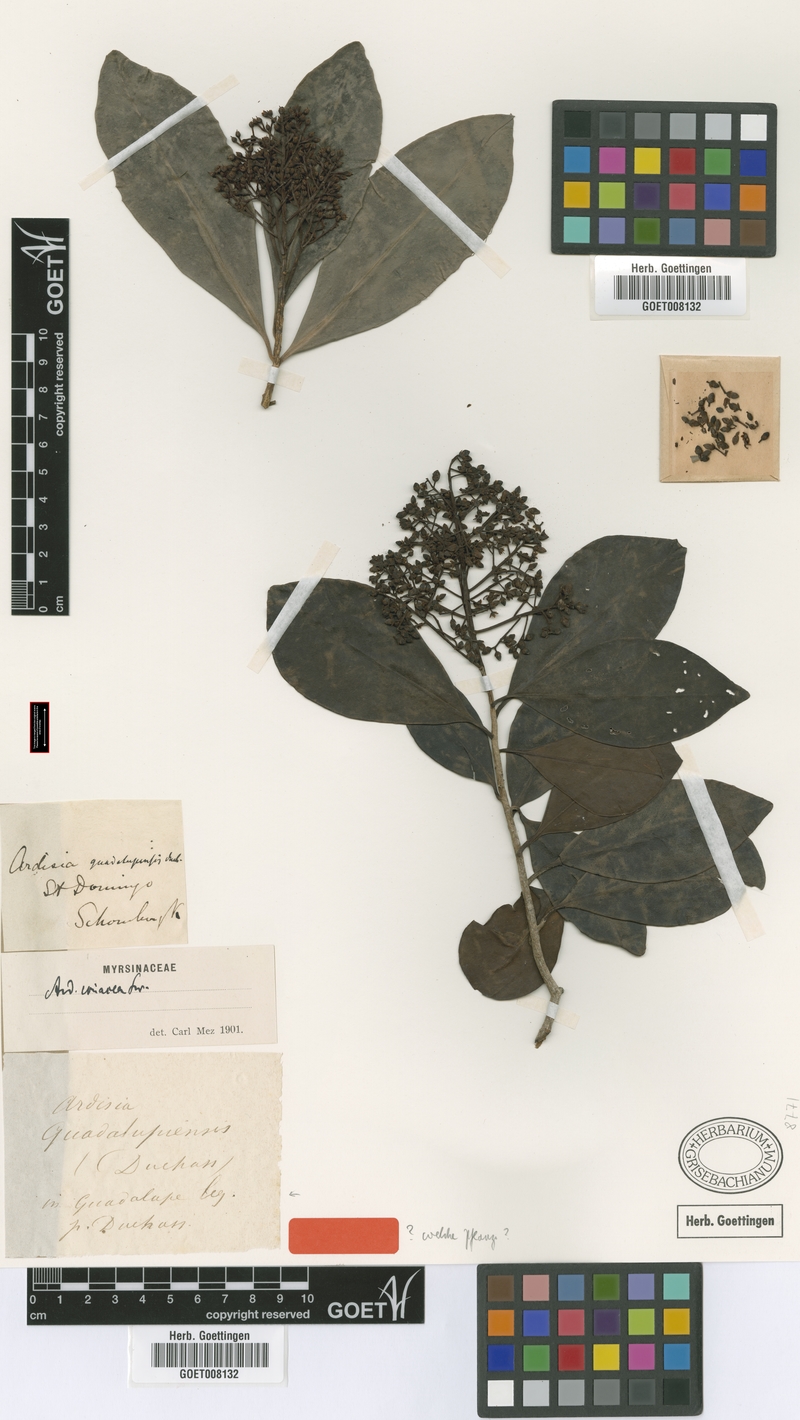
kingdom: Plantae
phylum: Tracheophyta
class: Magnoliopsida
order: Ericales
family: Primulaceae
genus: Myrsine
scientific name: Myrsine coriacea
